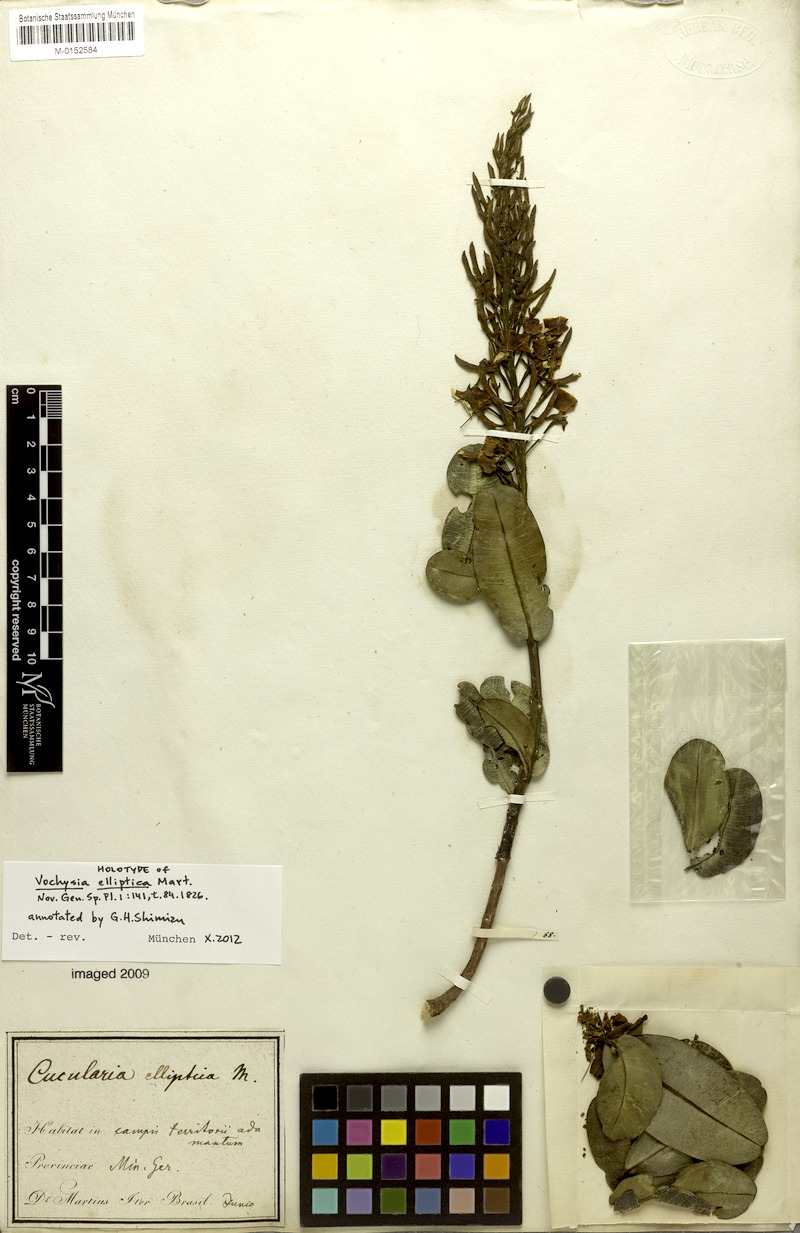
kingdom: Plantae
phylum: Tracheophyta
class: Magnoliopsida
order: Myrtales
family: Vochysiaceae
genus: Vochysia
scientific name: Vochysia elliptica
